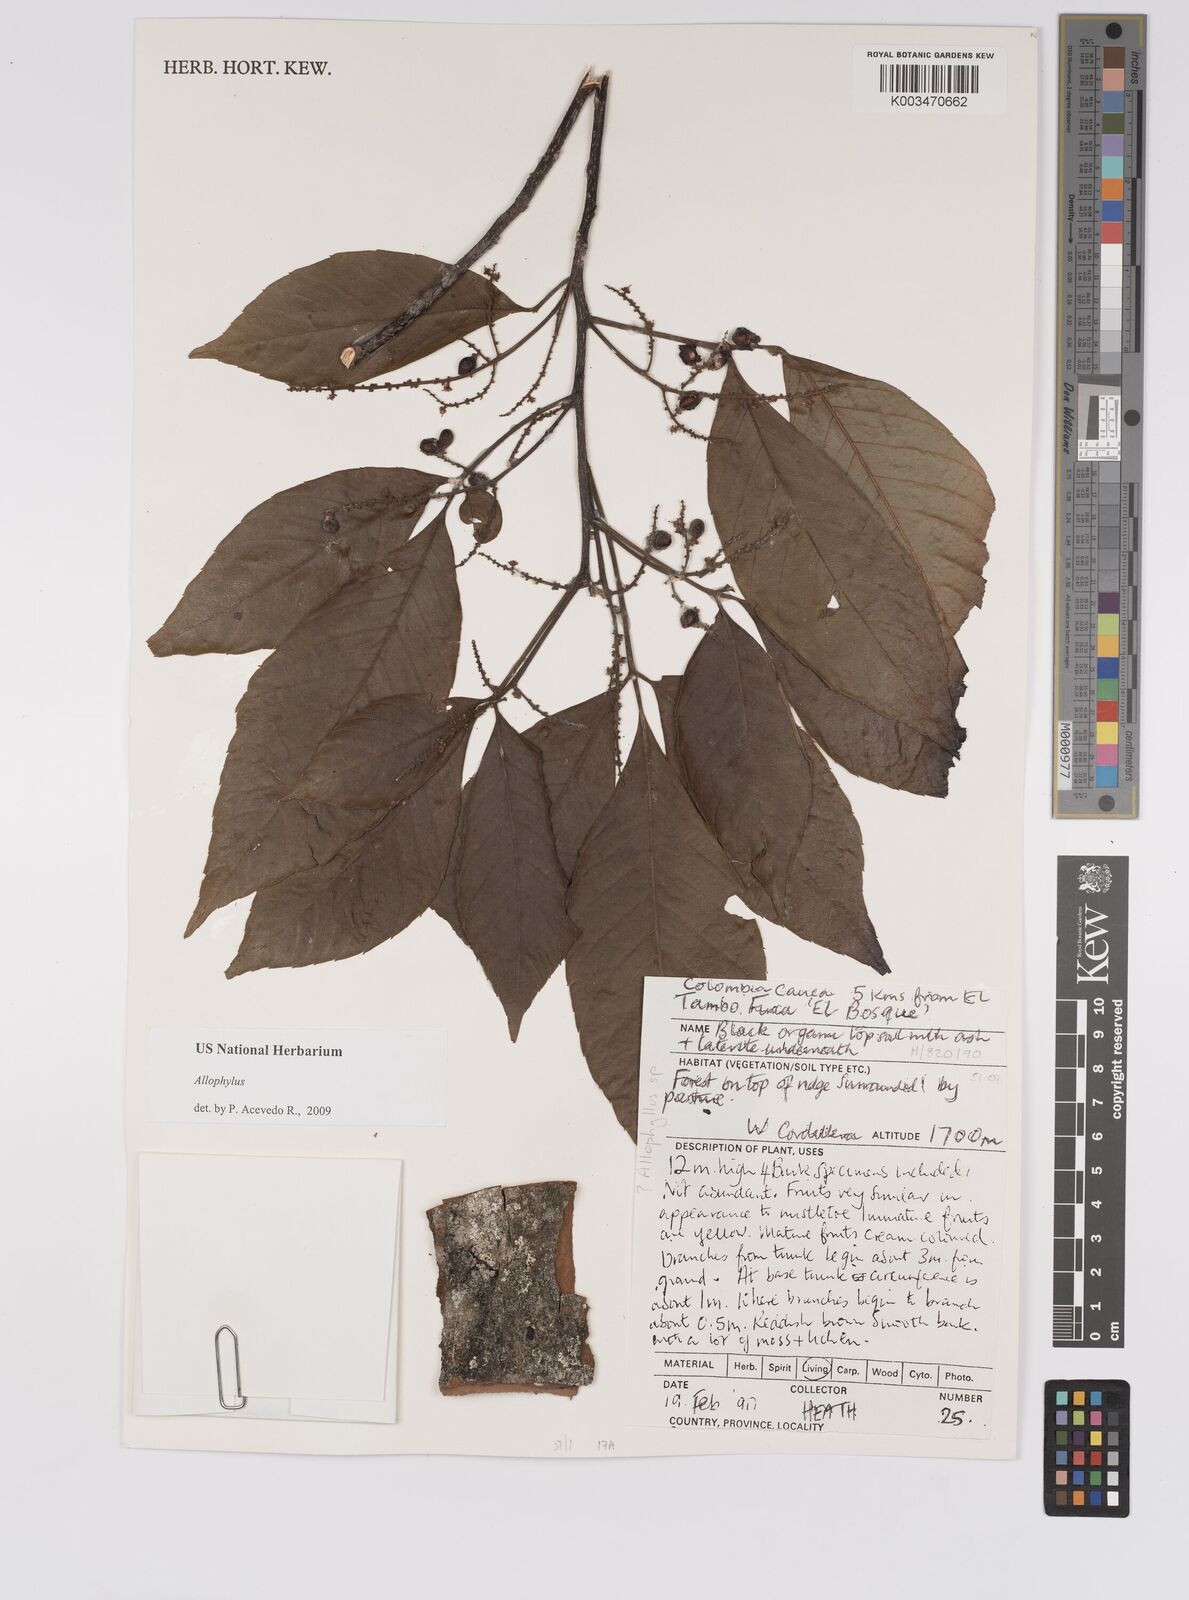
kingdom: Plantae
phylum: Tracheophyta
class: Magnoliopsida
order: Sapindales
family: Sapindaceae
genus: Allophylus
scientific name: Allophylus
